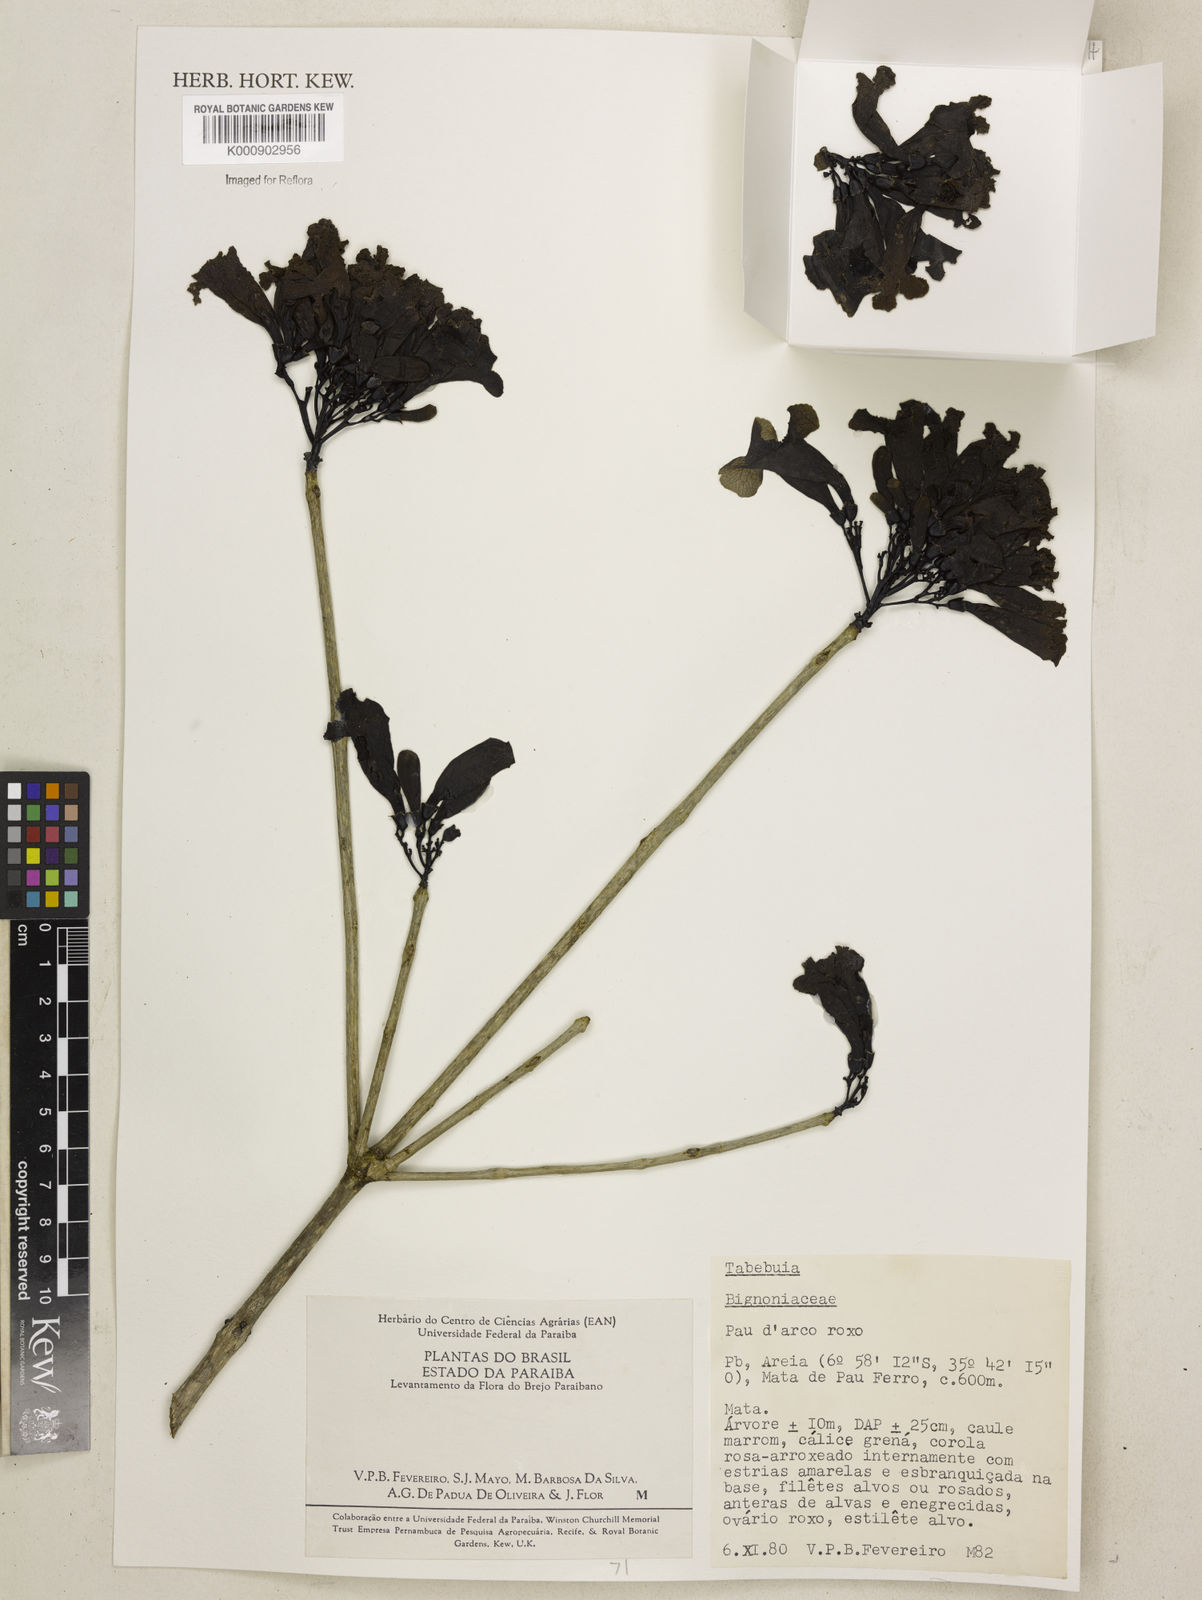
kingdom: Plantae
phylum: Tracheophyta
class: Magnoliopsida
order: Lamiales
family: Bignoniaceae
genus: Tabebuia
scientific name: Tabebuia
